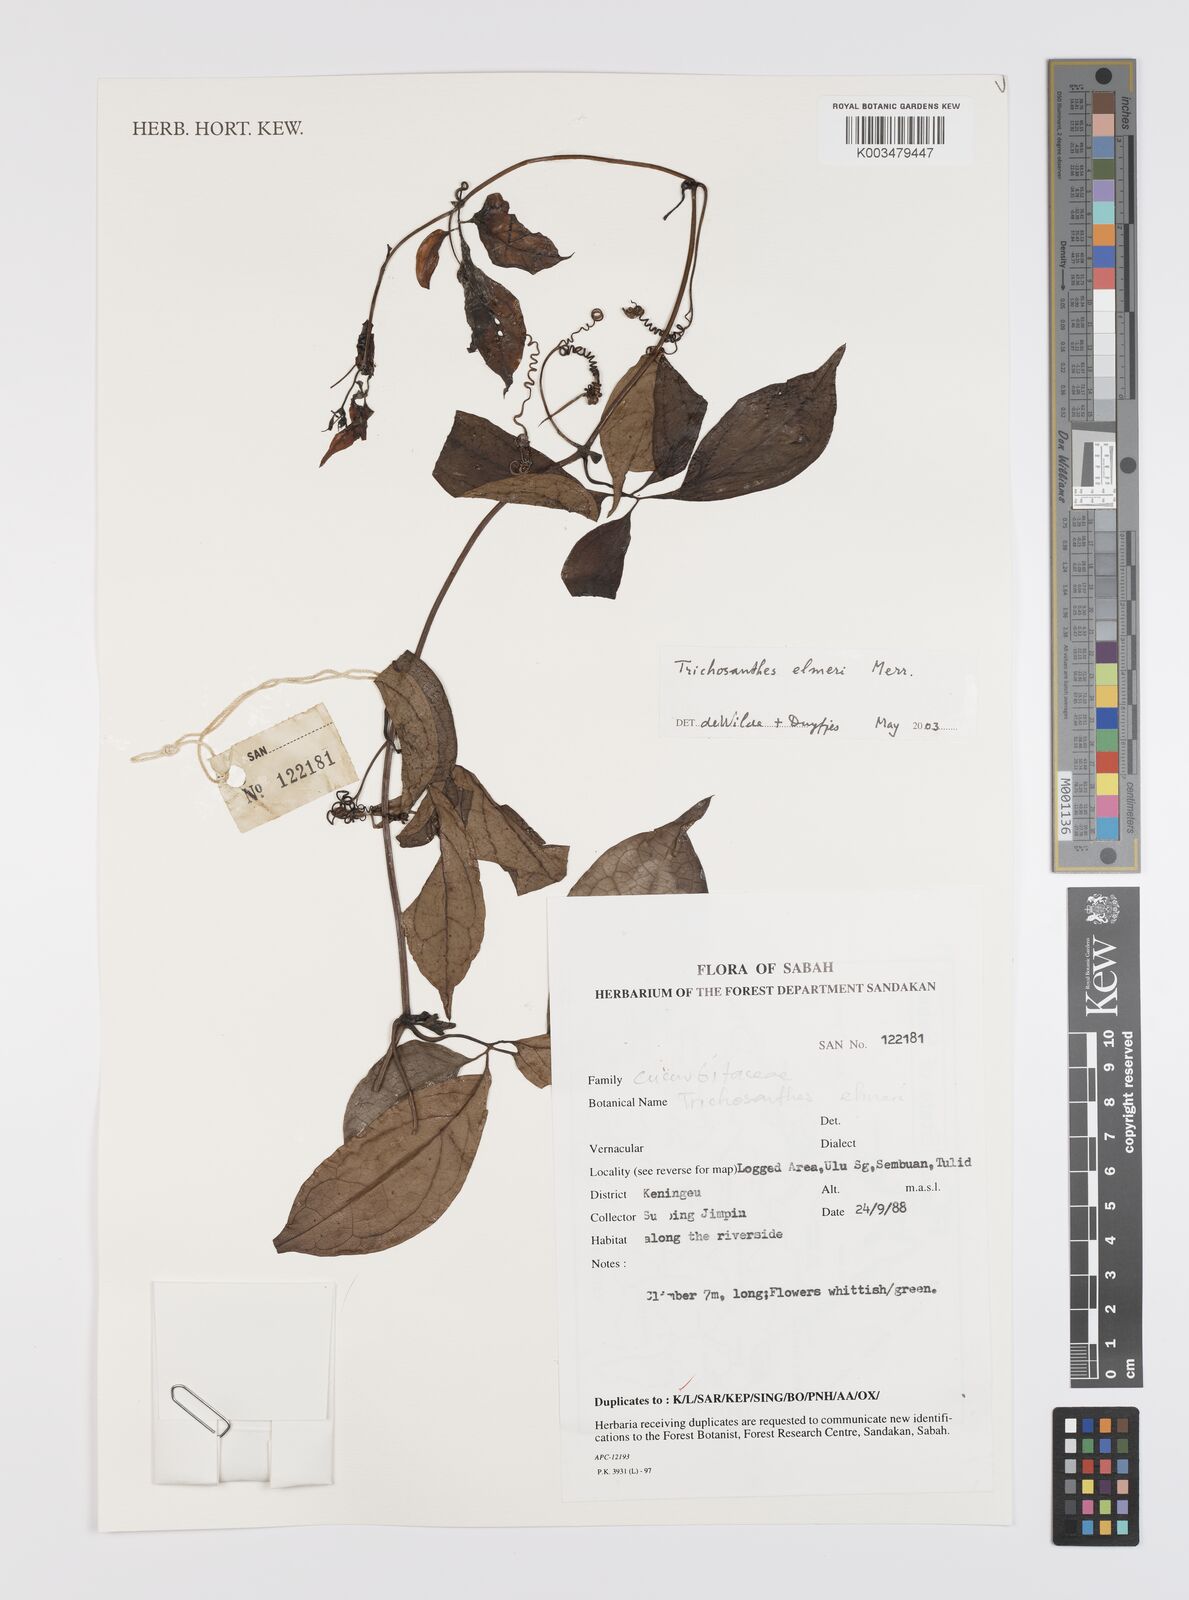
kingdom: Plantae
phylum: Tracheophyta
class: Magnoliopsida
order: Cucurbitales
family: Cucurbitaceae
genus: Trichosanthes
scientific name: Trichosanthes elmeri
